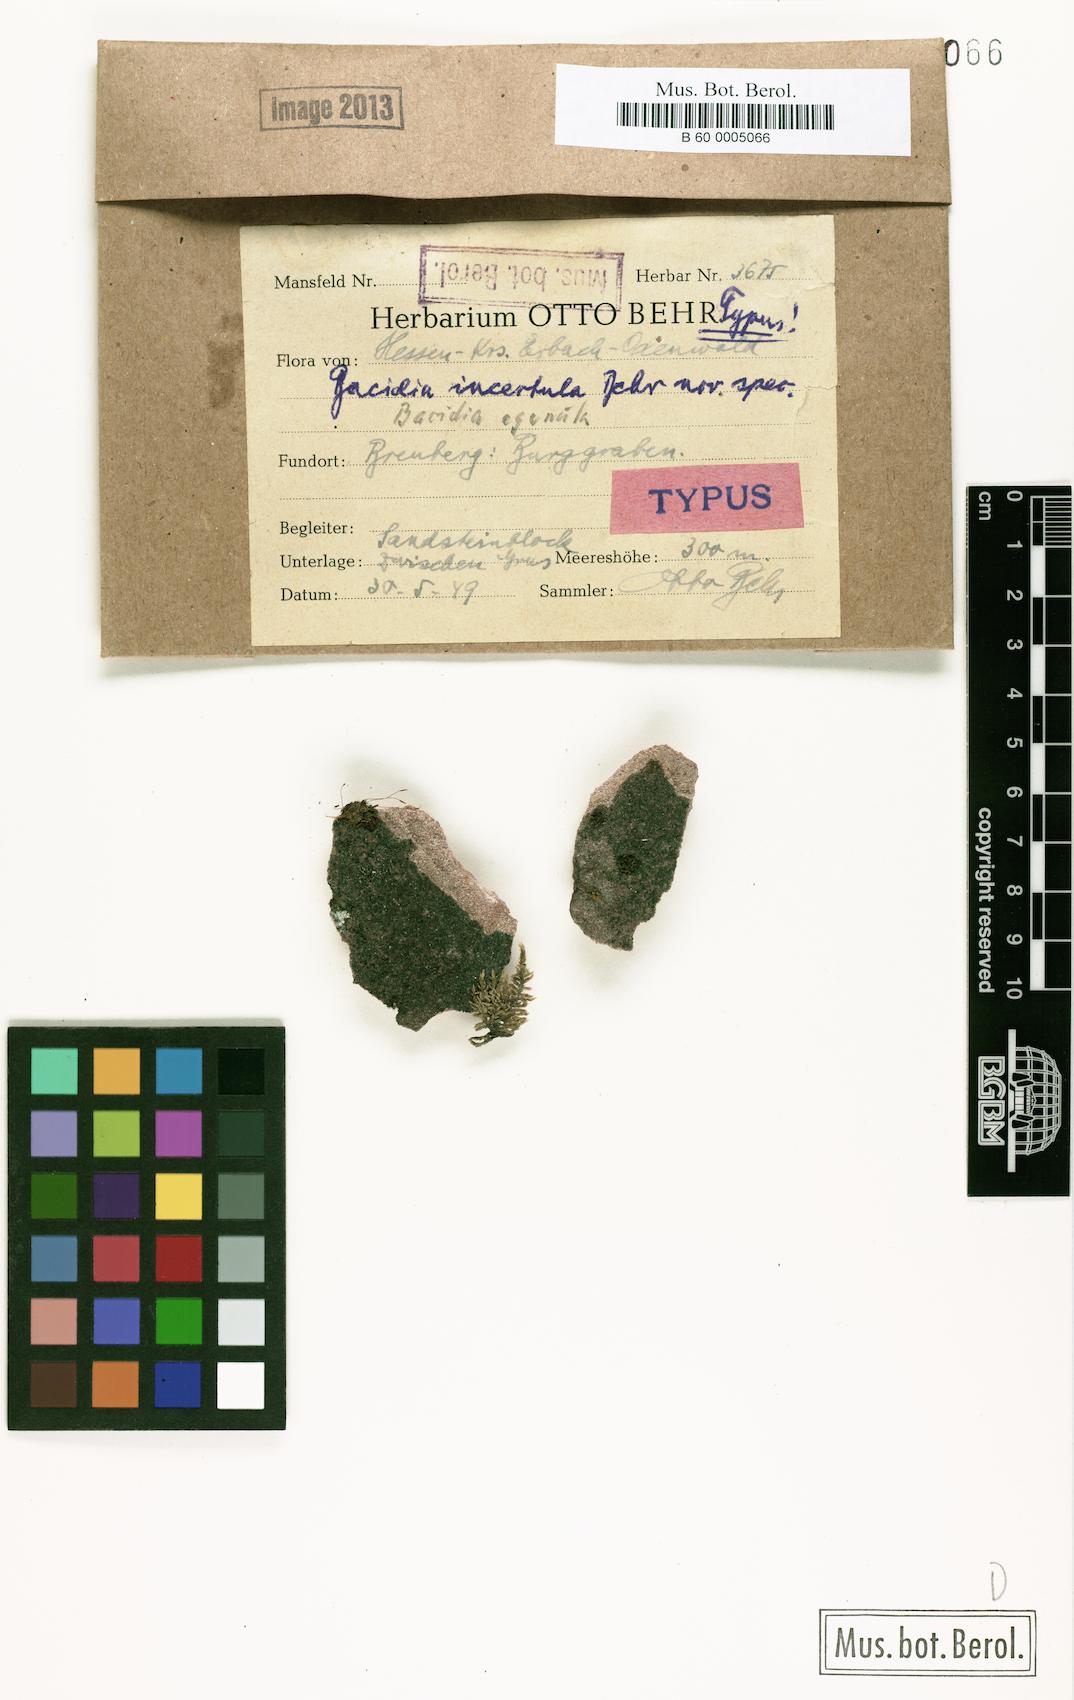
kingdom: Fungi
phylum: Ascomycota
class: Lecanoromycetes
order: Lecanorales
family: Ramalinaceae
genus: Bacidia
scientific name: Bacidia
